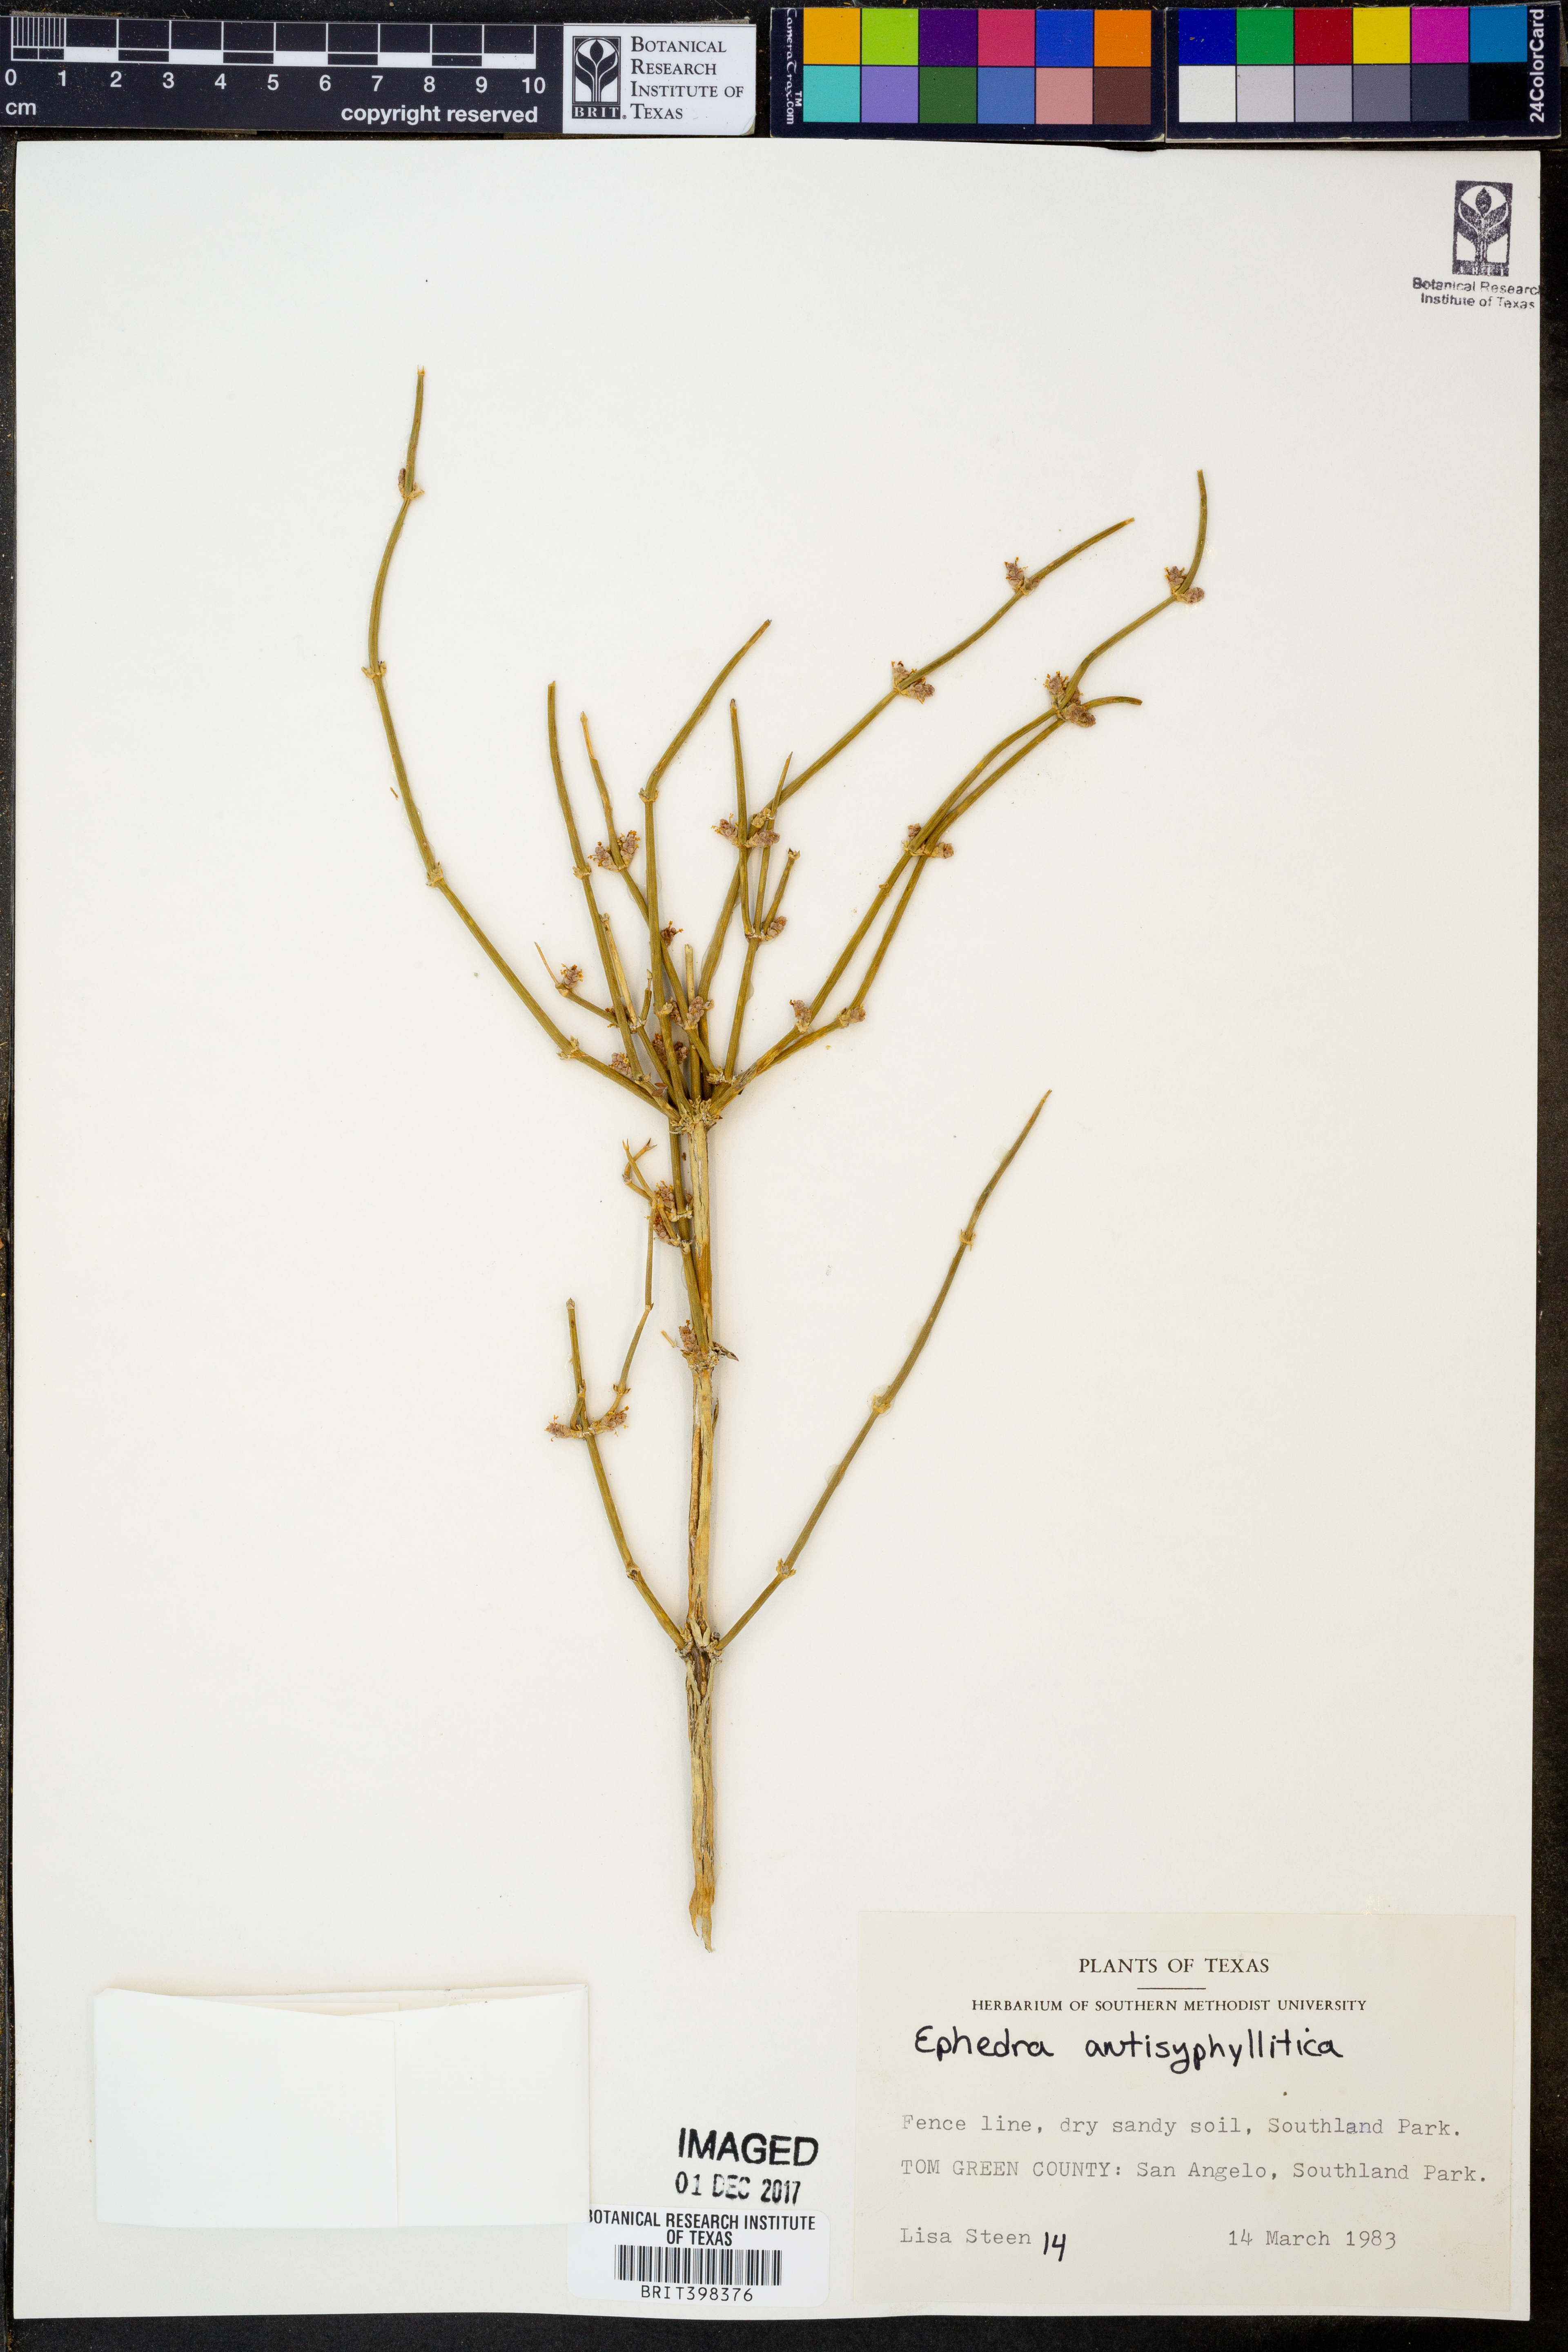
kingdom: Plantae
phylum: Tracheophyta
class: Gnetopsida
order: Ephedrales
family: Ephedraceae
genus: Ephedra
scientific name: Ephedra antisyphilitica
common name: Clipweed
